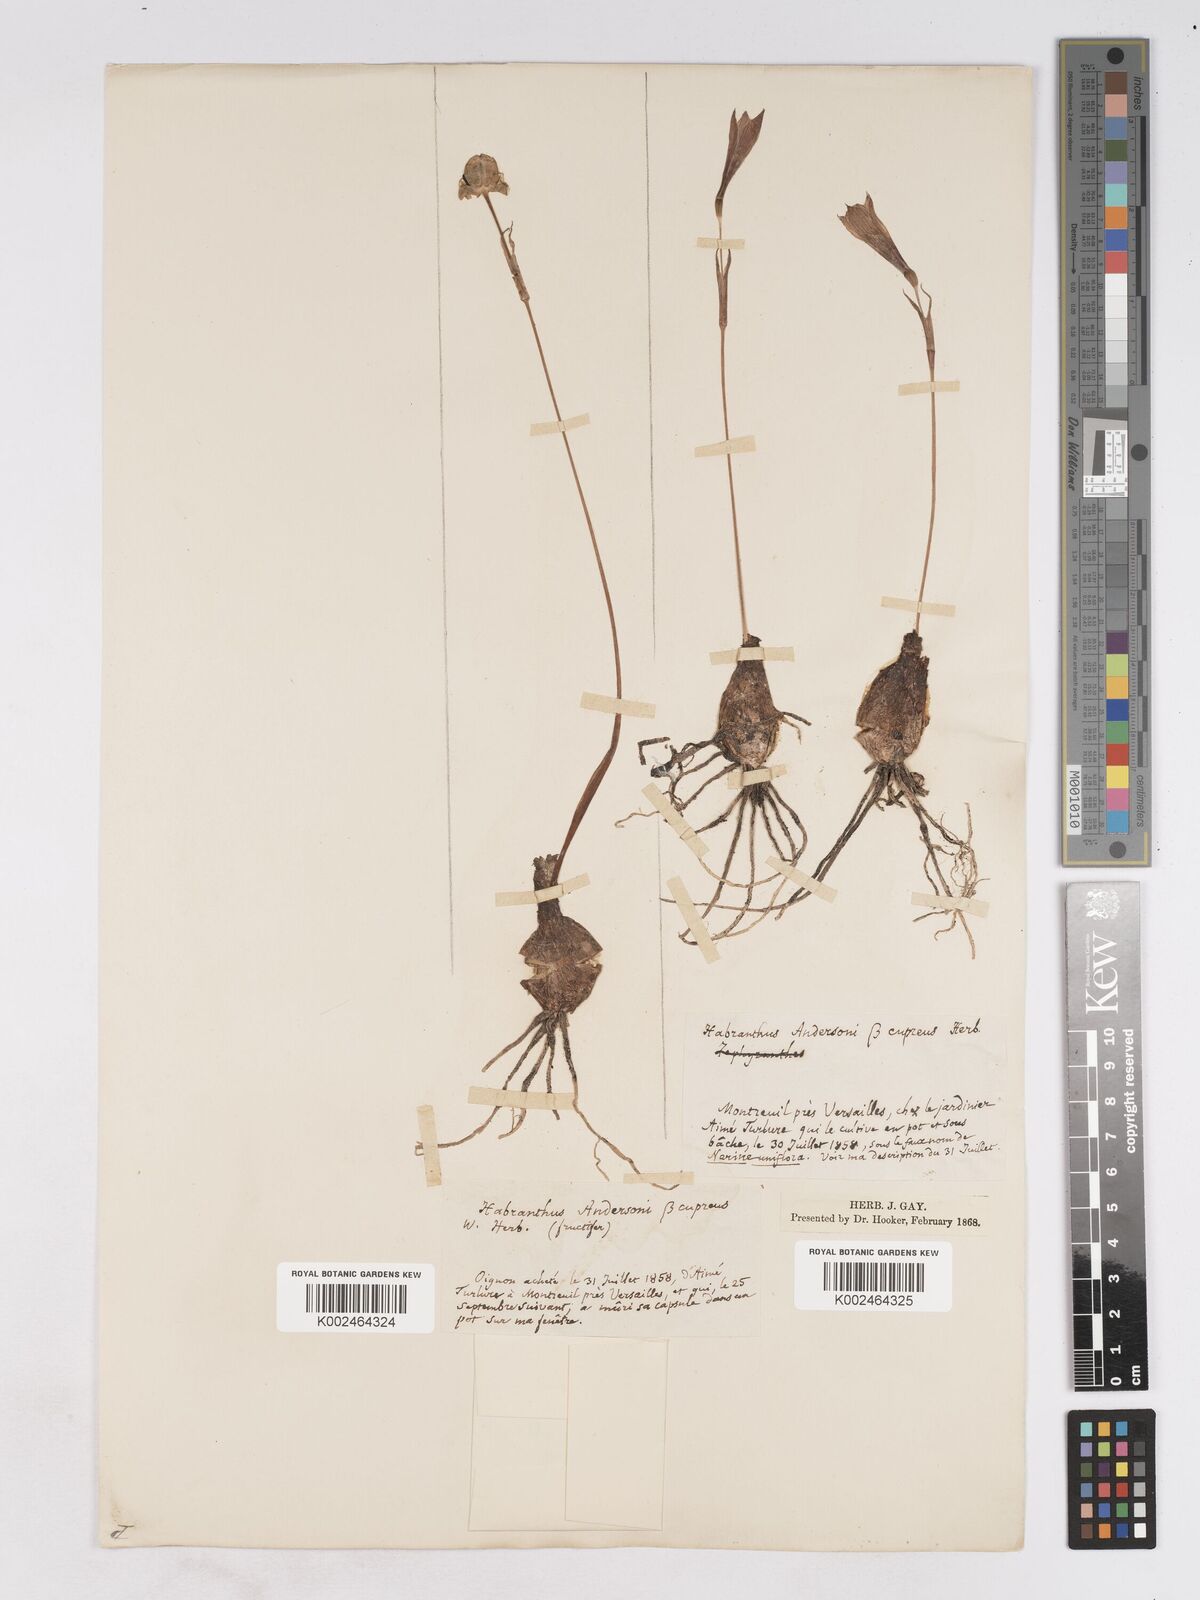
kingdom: Plantae
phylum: Tracheophyta
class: Liliopsida
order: Asparagales
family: Amaryllidaceae
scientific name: Amaryllidaceae
